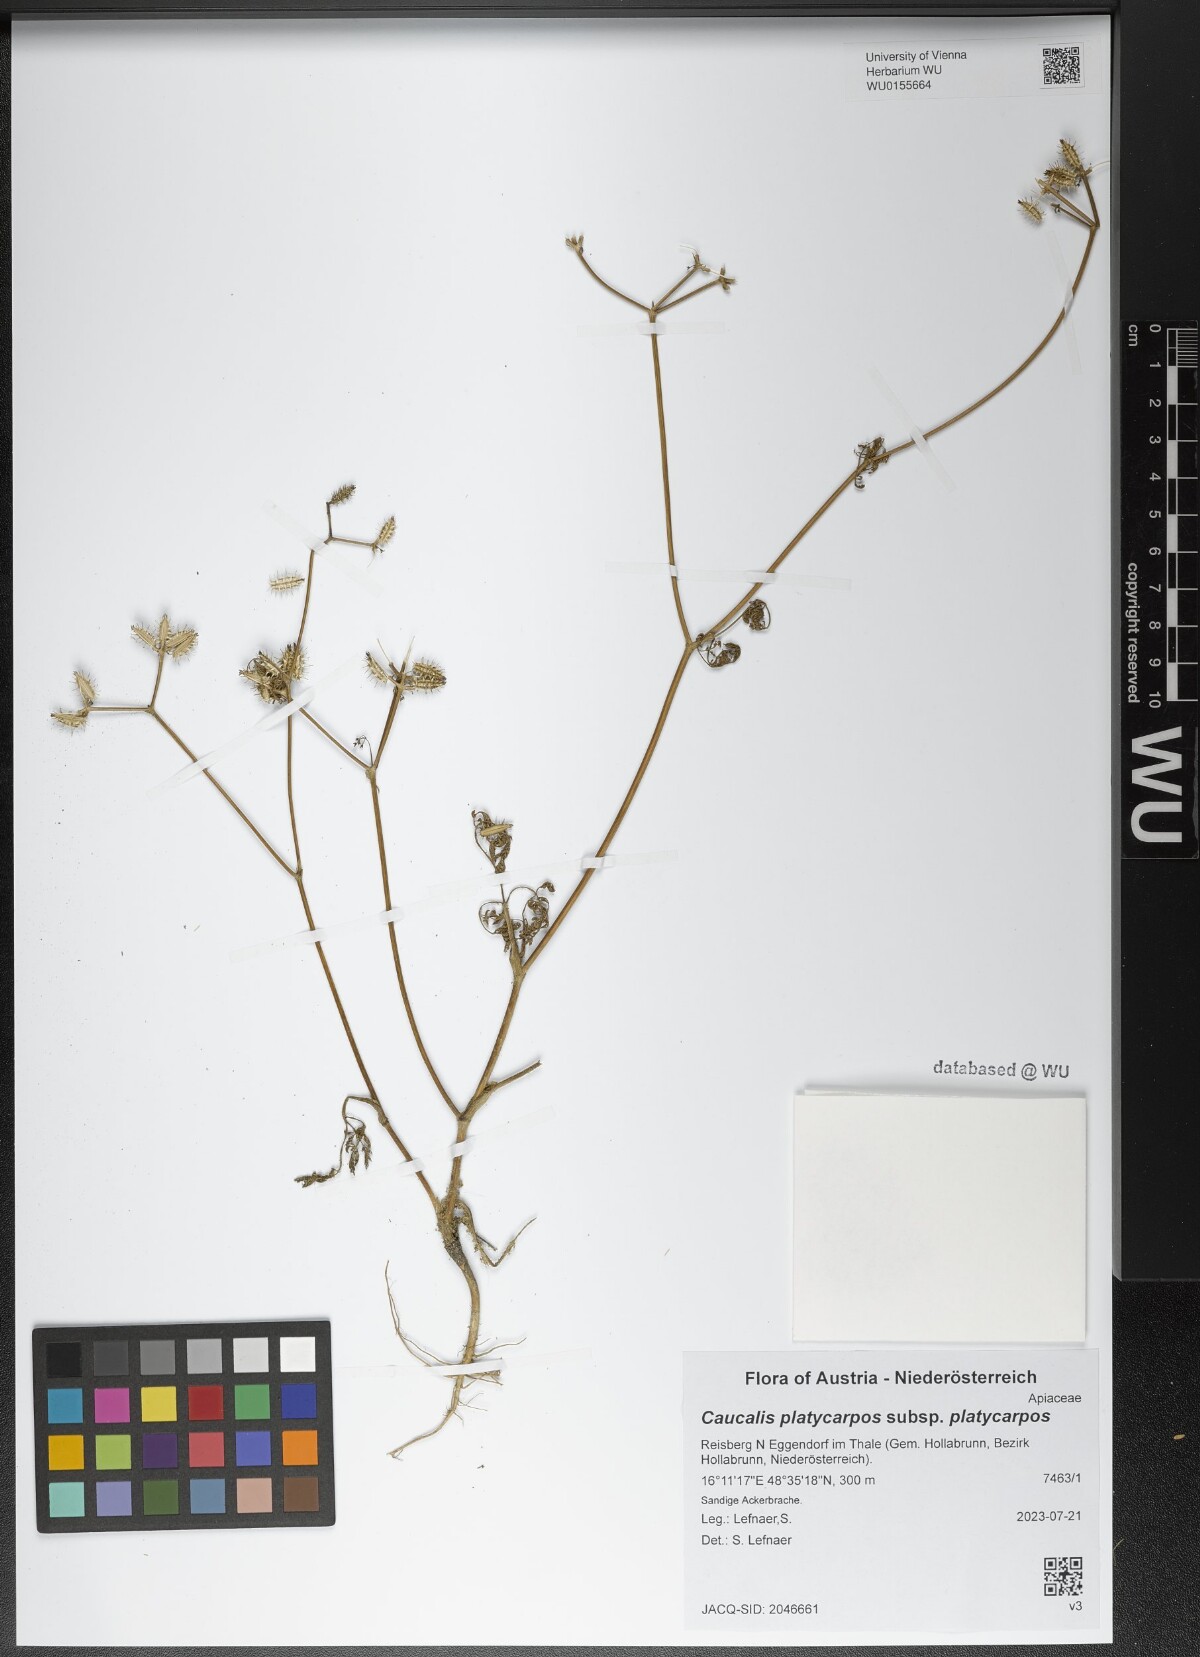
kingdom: Plantae
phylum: Tracheophyta
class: Magnoliopsida
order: Apiales
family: Apiaceae
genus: Caucalis
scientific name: Caucalis platycarpos
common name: Small bur-parsley
